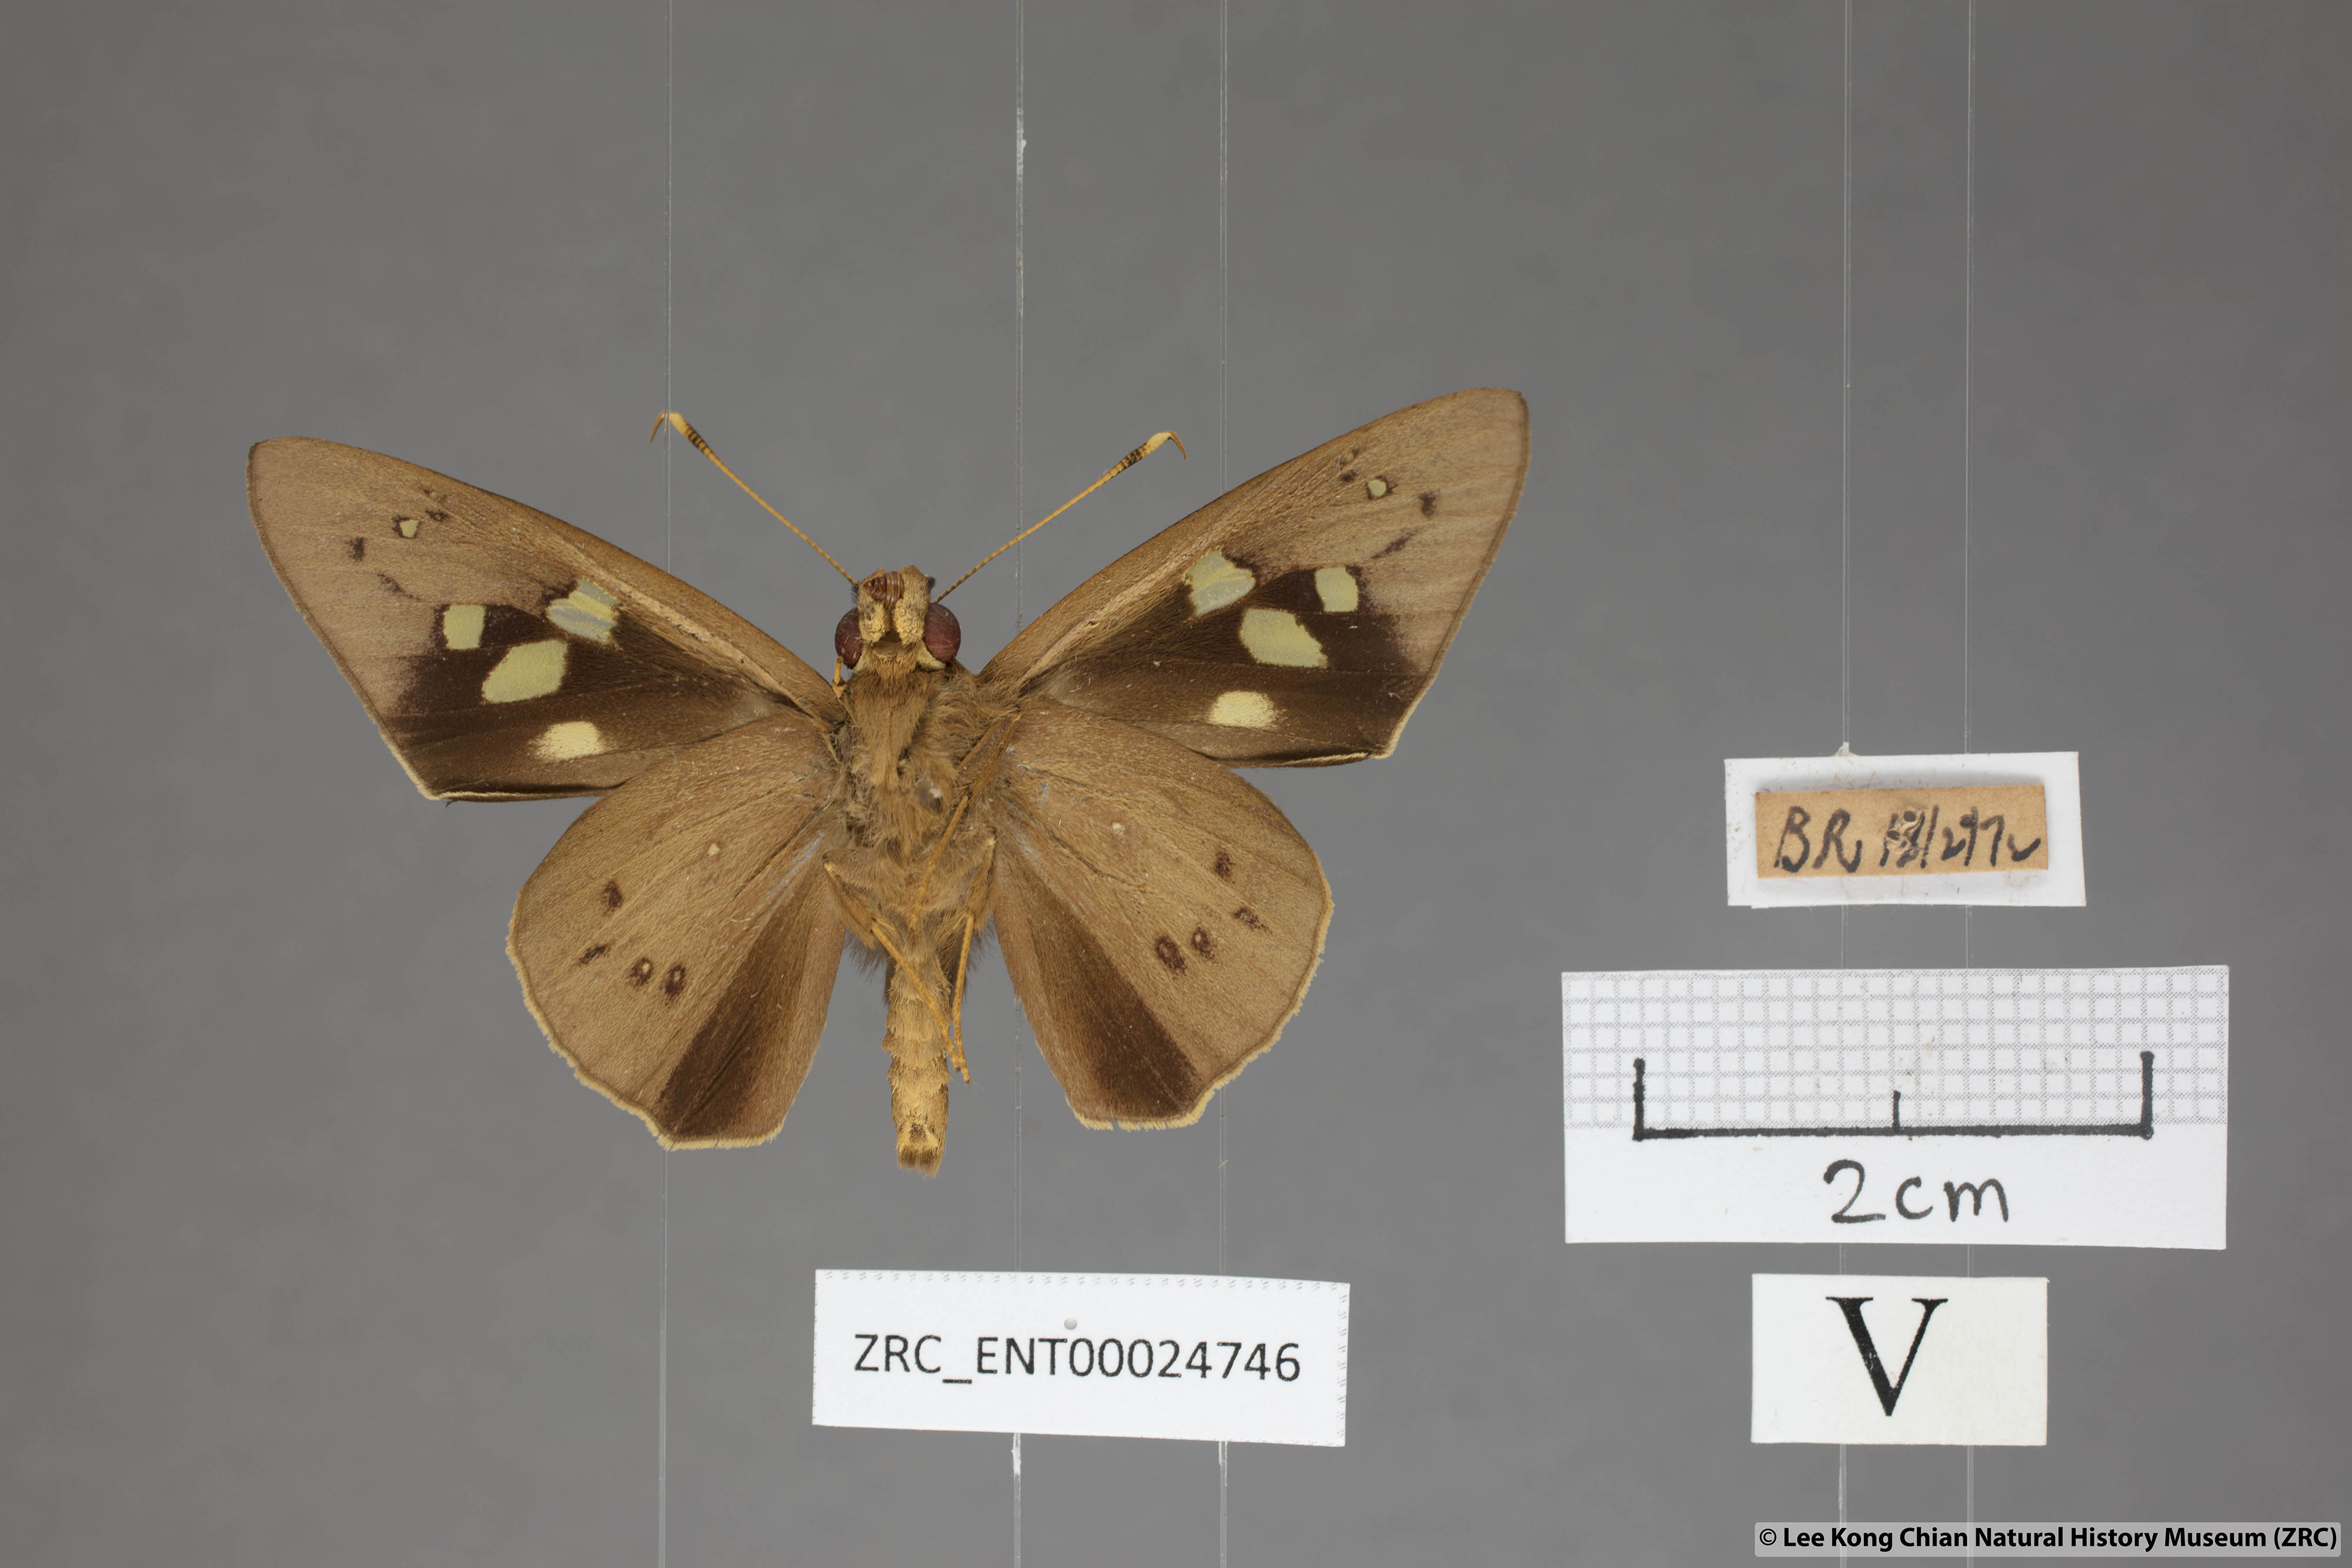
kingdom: Animalia
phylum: Arthropoda
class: Insecta
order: Lepidoptera
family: Hesperiidae
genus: Hidari
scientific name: Hidari irava
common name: Coconut skipper
